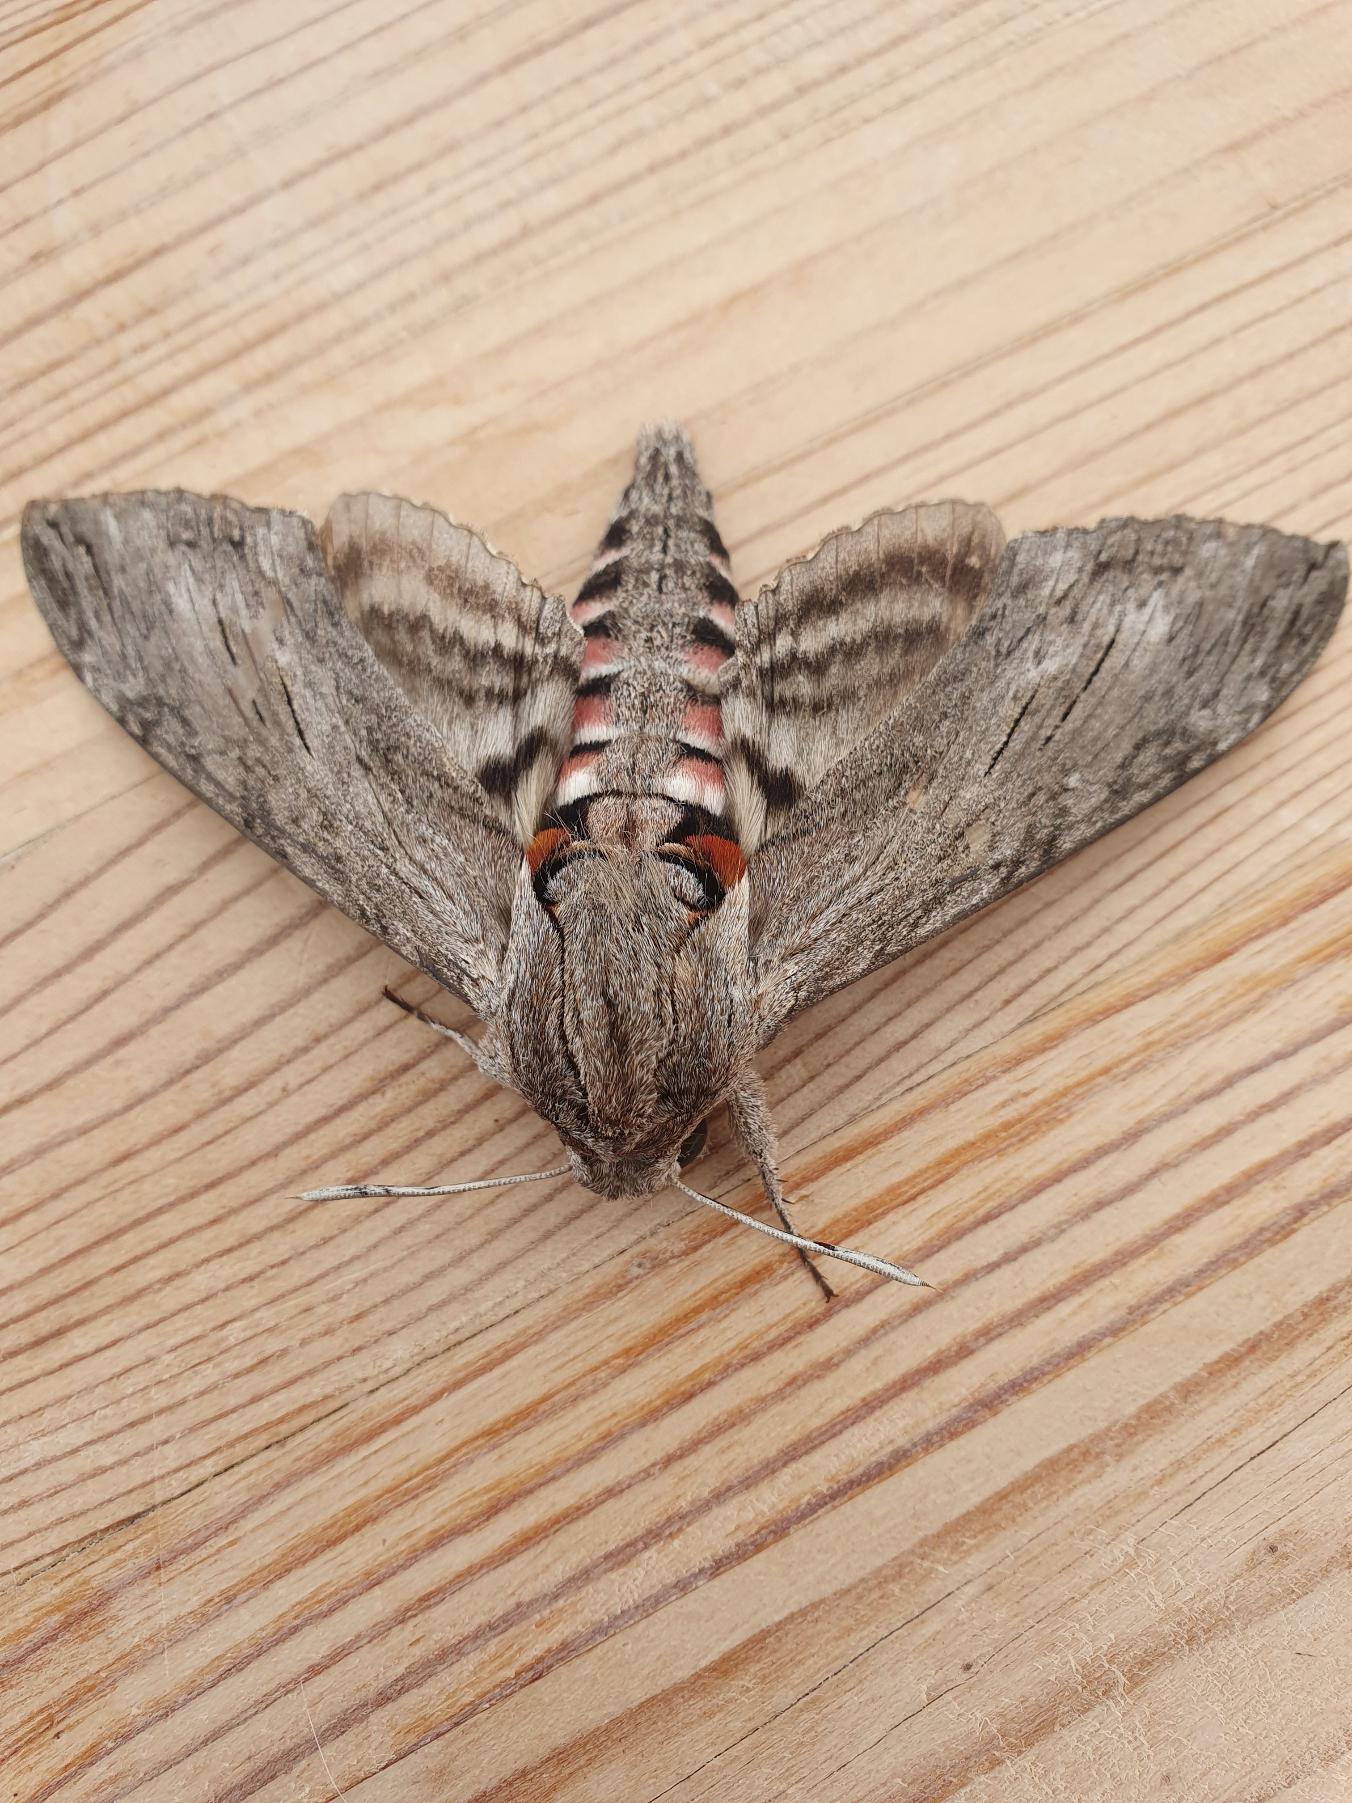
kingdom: Animalia
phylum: Arthropoda
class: Insecta
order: Lepidoptera
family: Sphingidae
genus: Agrius
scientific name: Agrius convolvuli
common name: Snerlesværmer
